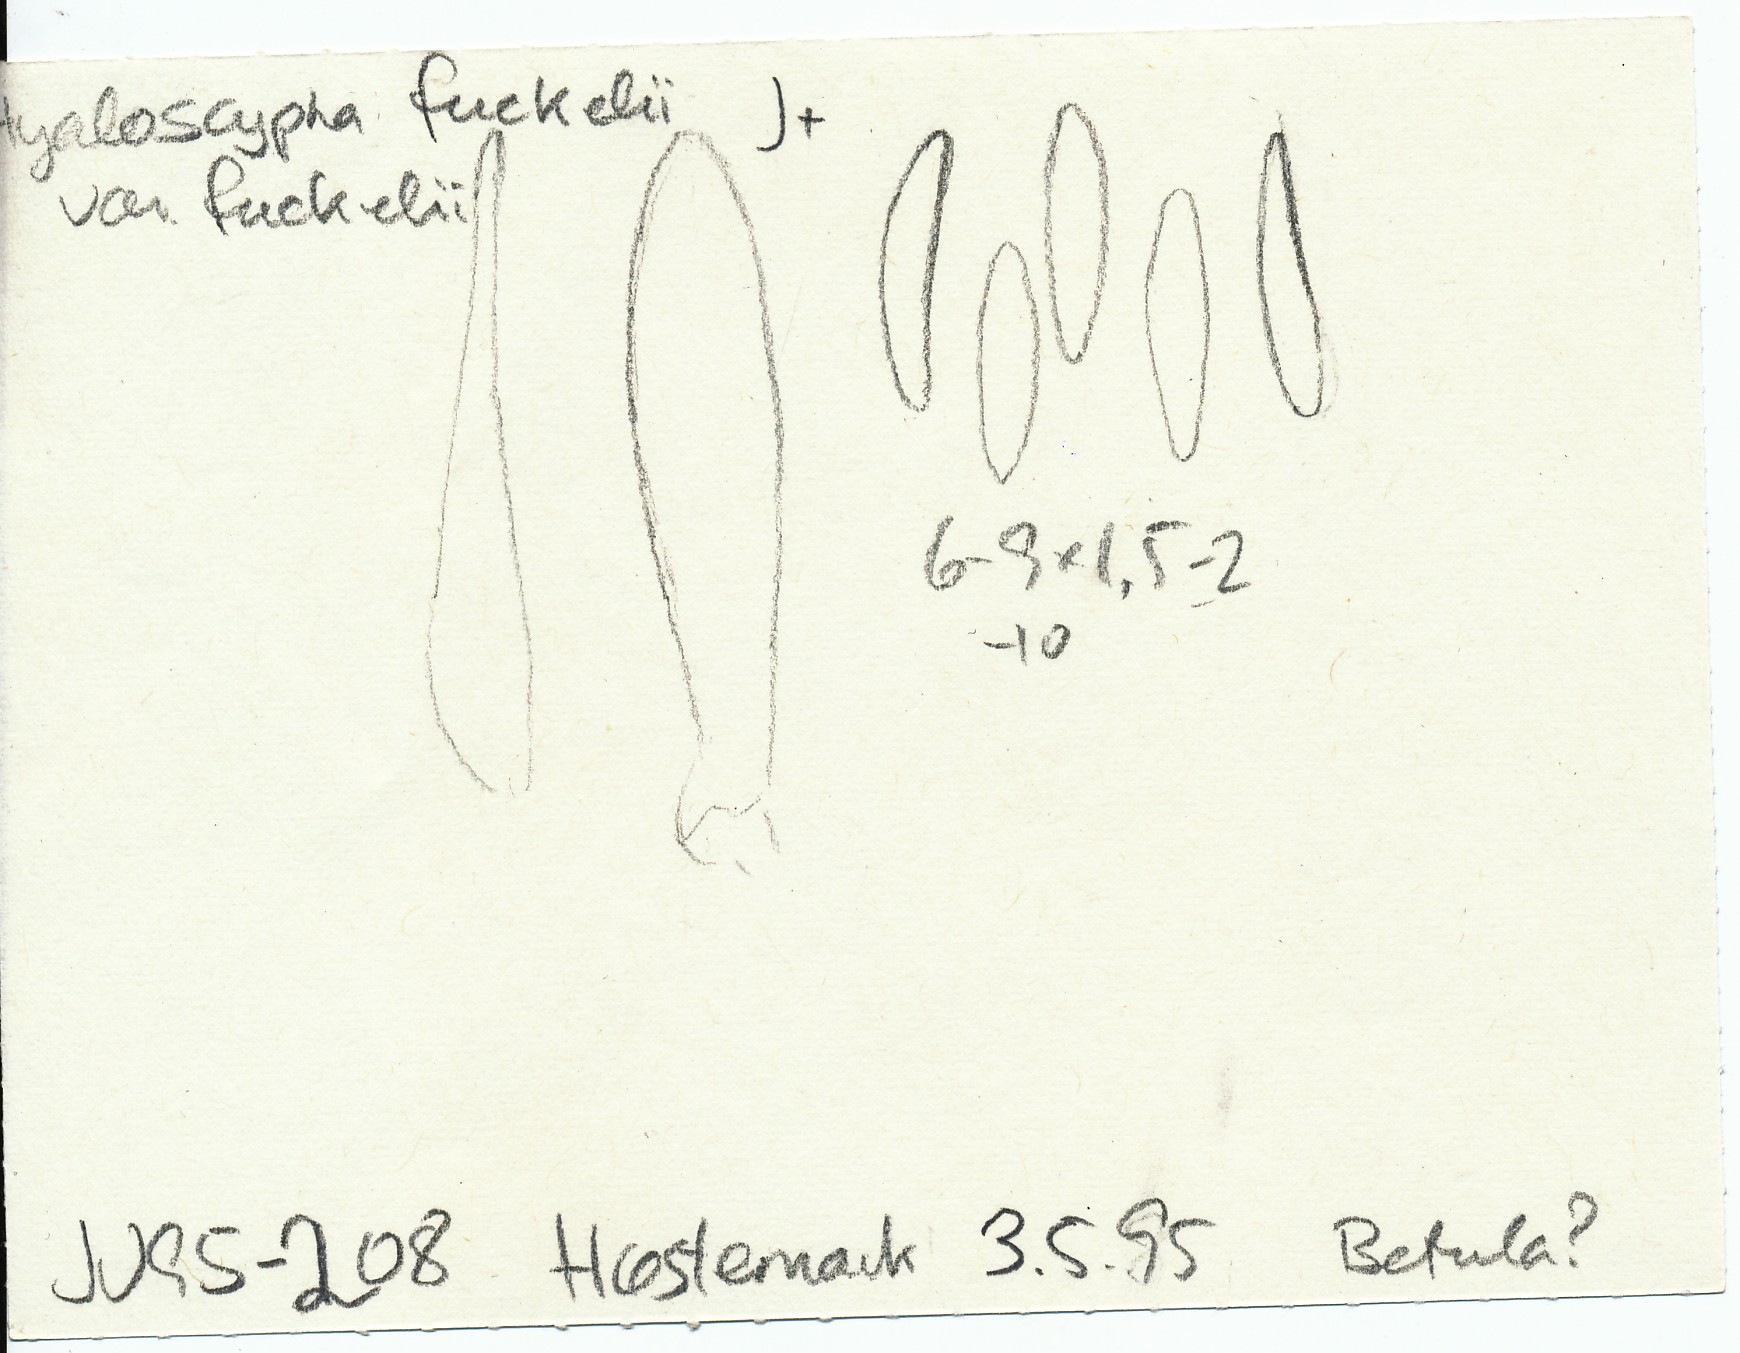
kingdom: Fungi
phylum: Ascomycota
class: Leotiomycetes
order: Helotiales
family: Hyaloscyphaceae
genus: Hyaloscypha
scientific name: Hyaloscypha fuckelii
